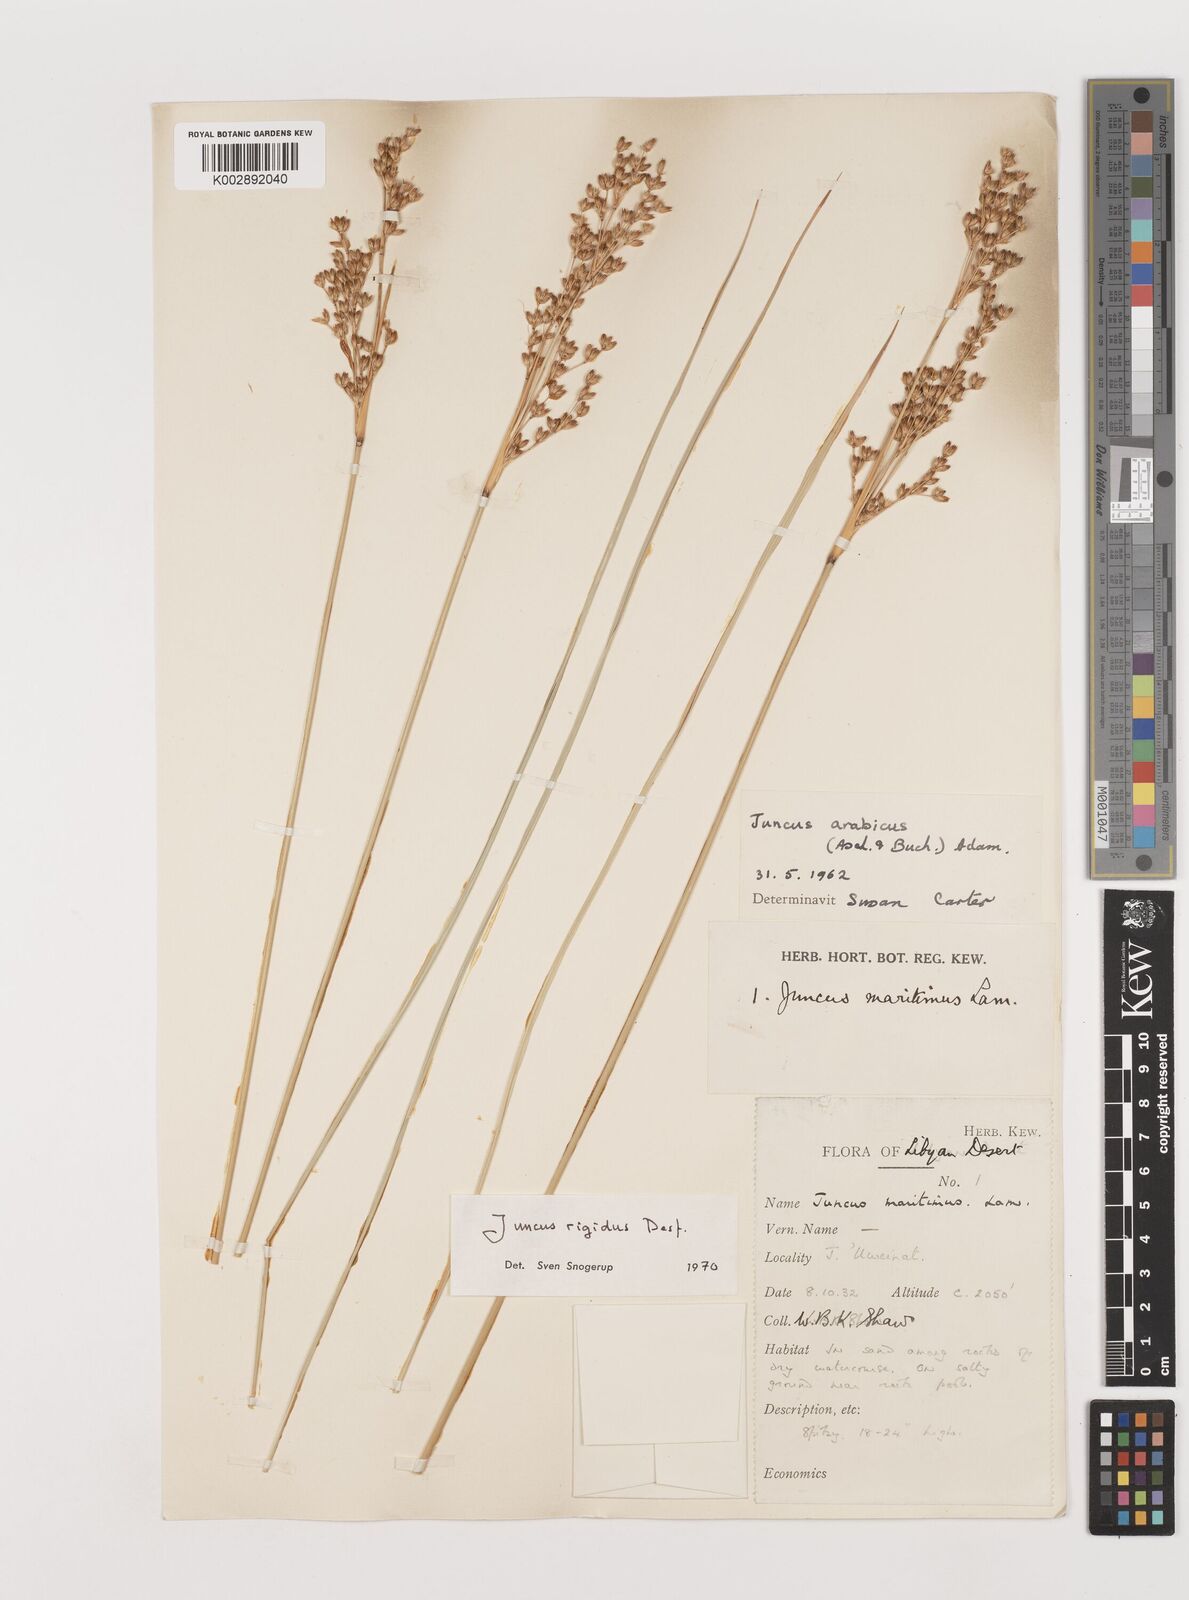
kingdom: Plantae
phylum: Tracheophyta
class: Liliopsida
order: Poales
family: Juncaceae
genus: Juncus
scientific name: Juncus rigidus
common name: Hard sea rush
